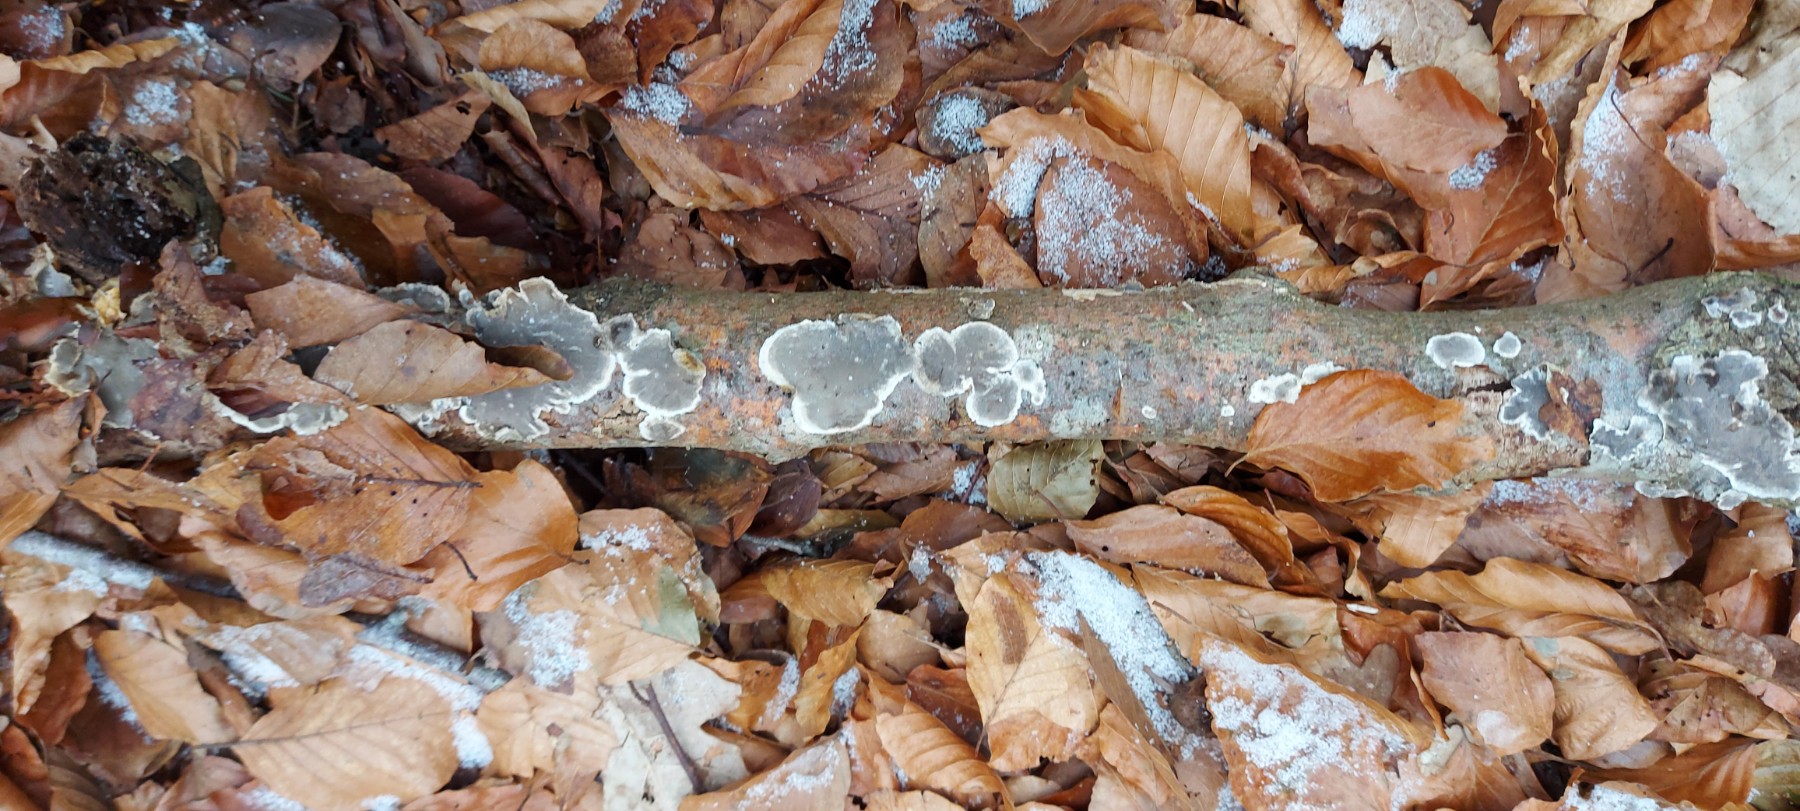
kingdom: Fungi
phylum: Basidiomycota
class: Agaricomycetes
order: Polyporales
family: Phanerochaetaceae
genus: Bjerkandera
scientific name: Bjerkandera adusta
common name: sveden sodporesvamp
